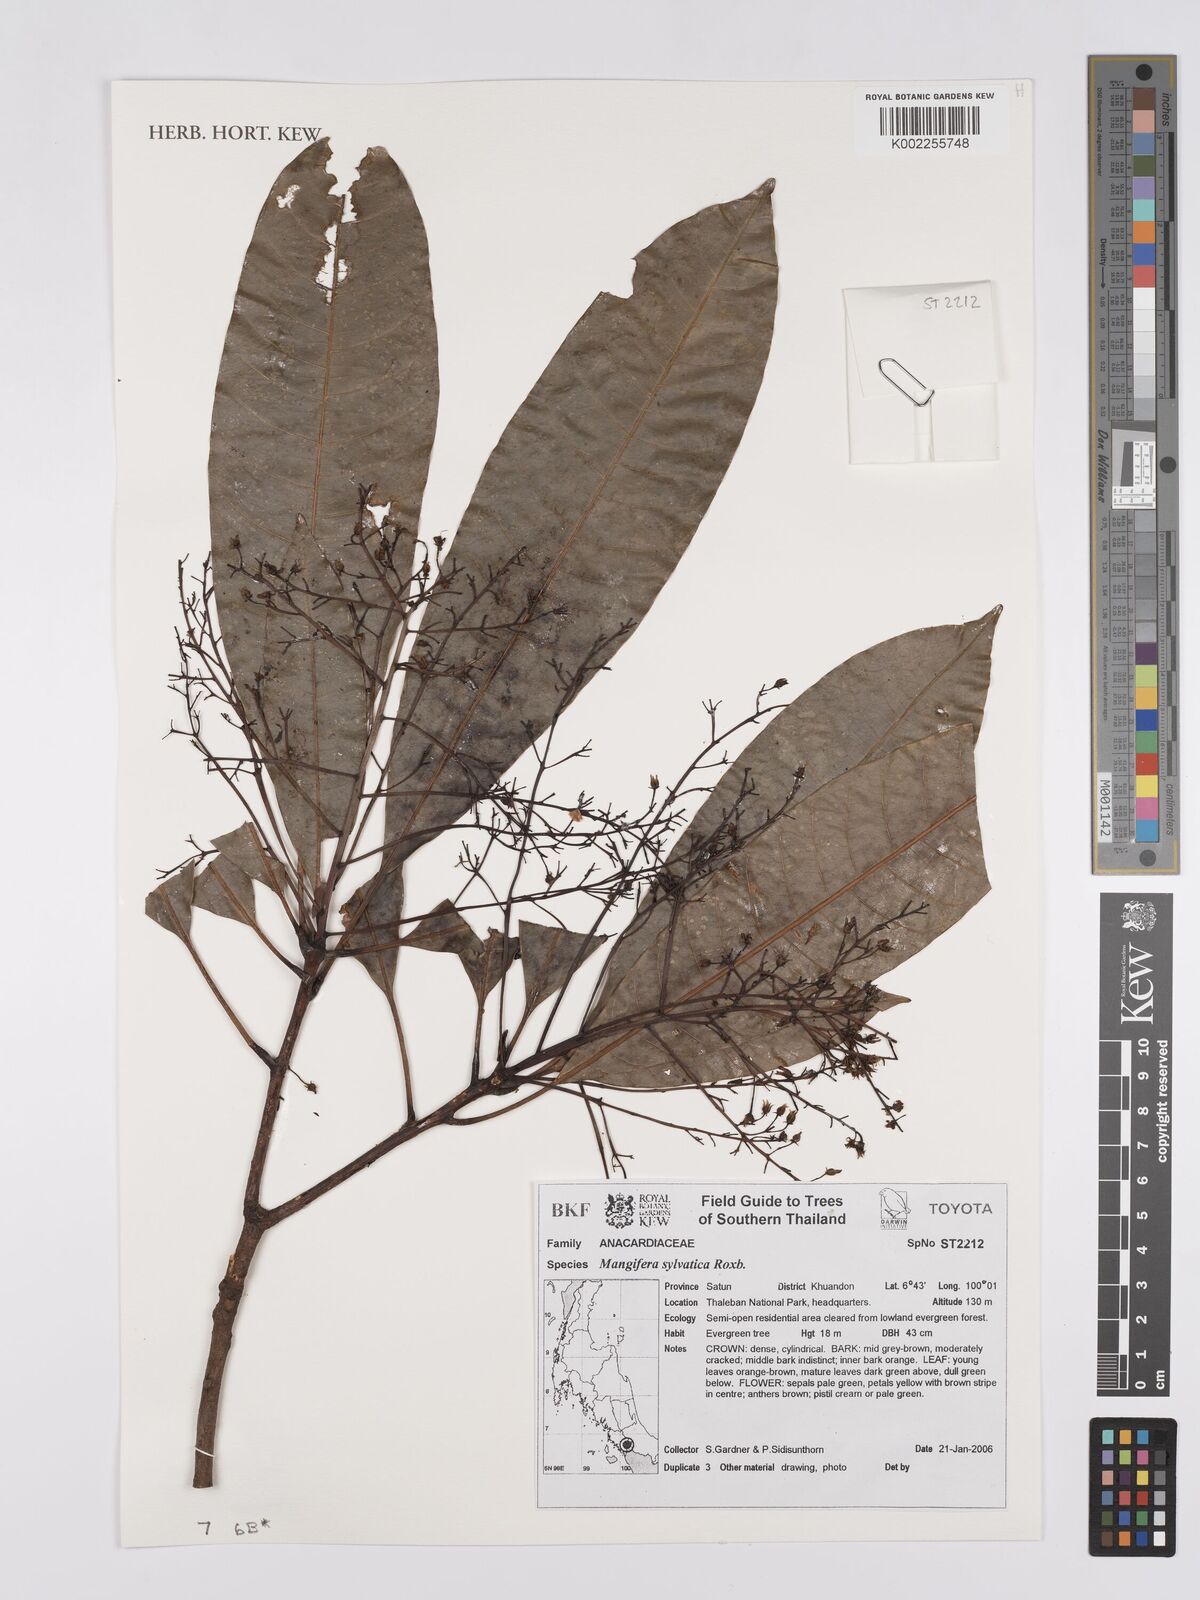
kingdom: Plantae
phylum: Tracheophyta
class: Magnoliopsida
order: Sapindales
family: Anacardiaceae
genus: Mangifera
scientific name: Mangifera sylvatica
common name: Nepal mango
